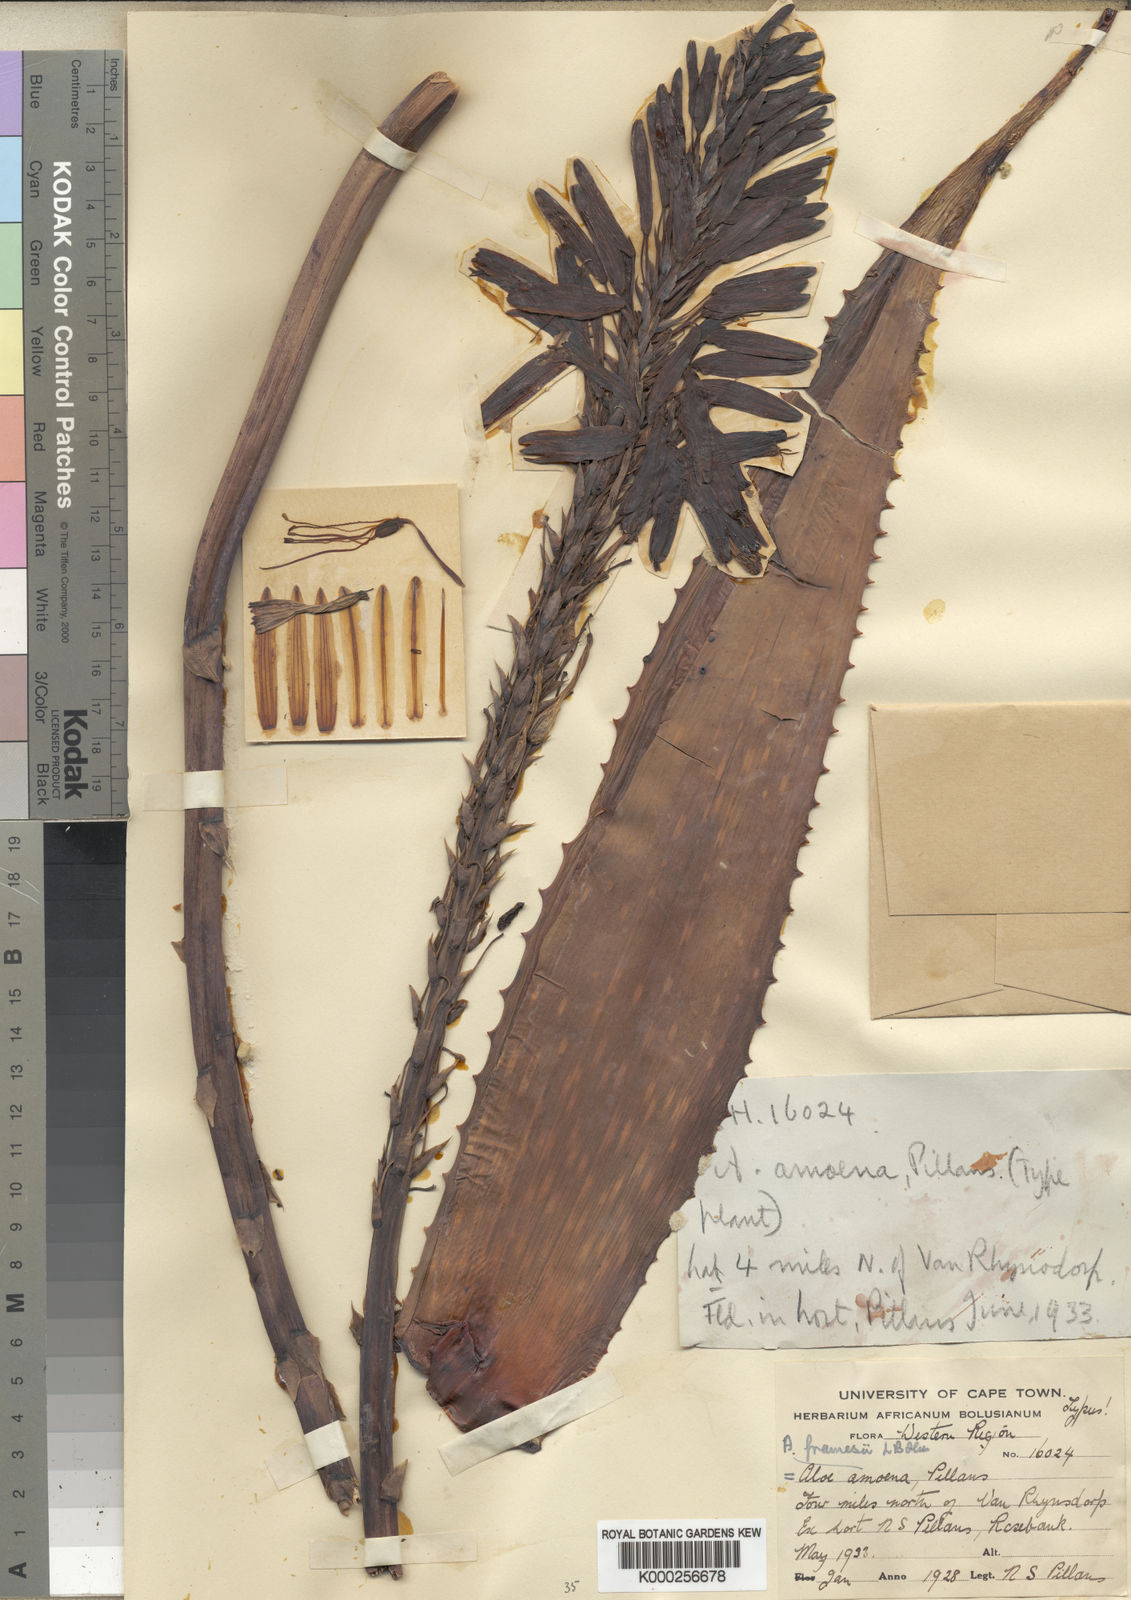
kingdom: Plantae
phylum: Tracheophyta
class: Liliopsida
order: Asparagales
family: Asphodelaceae
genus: Aloe
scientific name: Aloe microstigma
